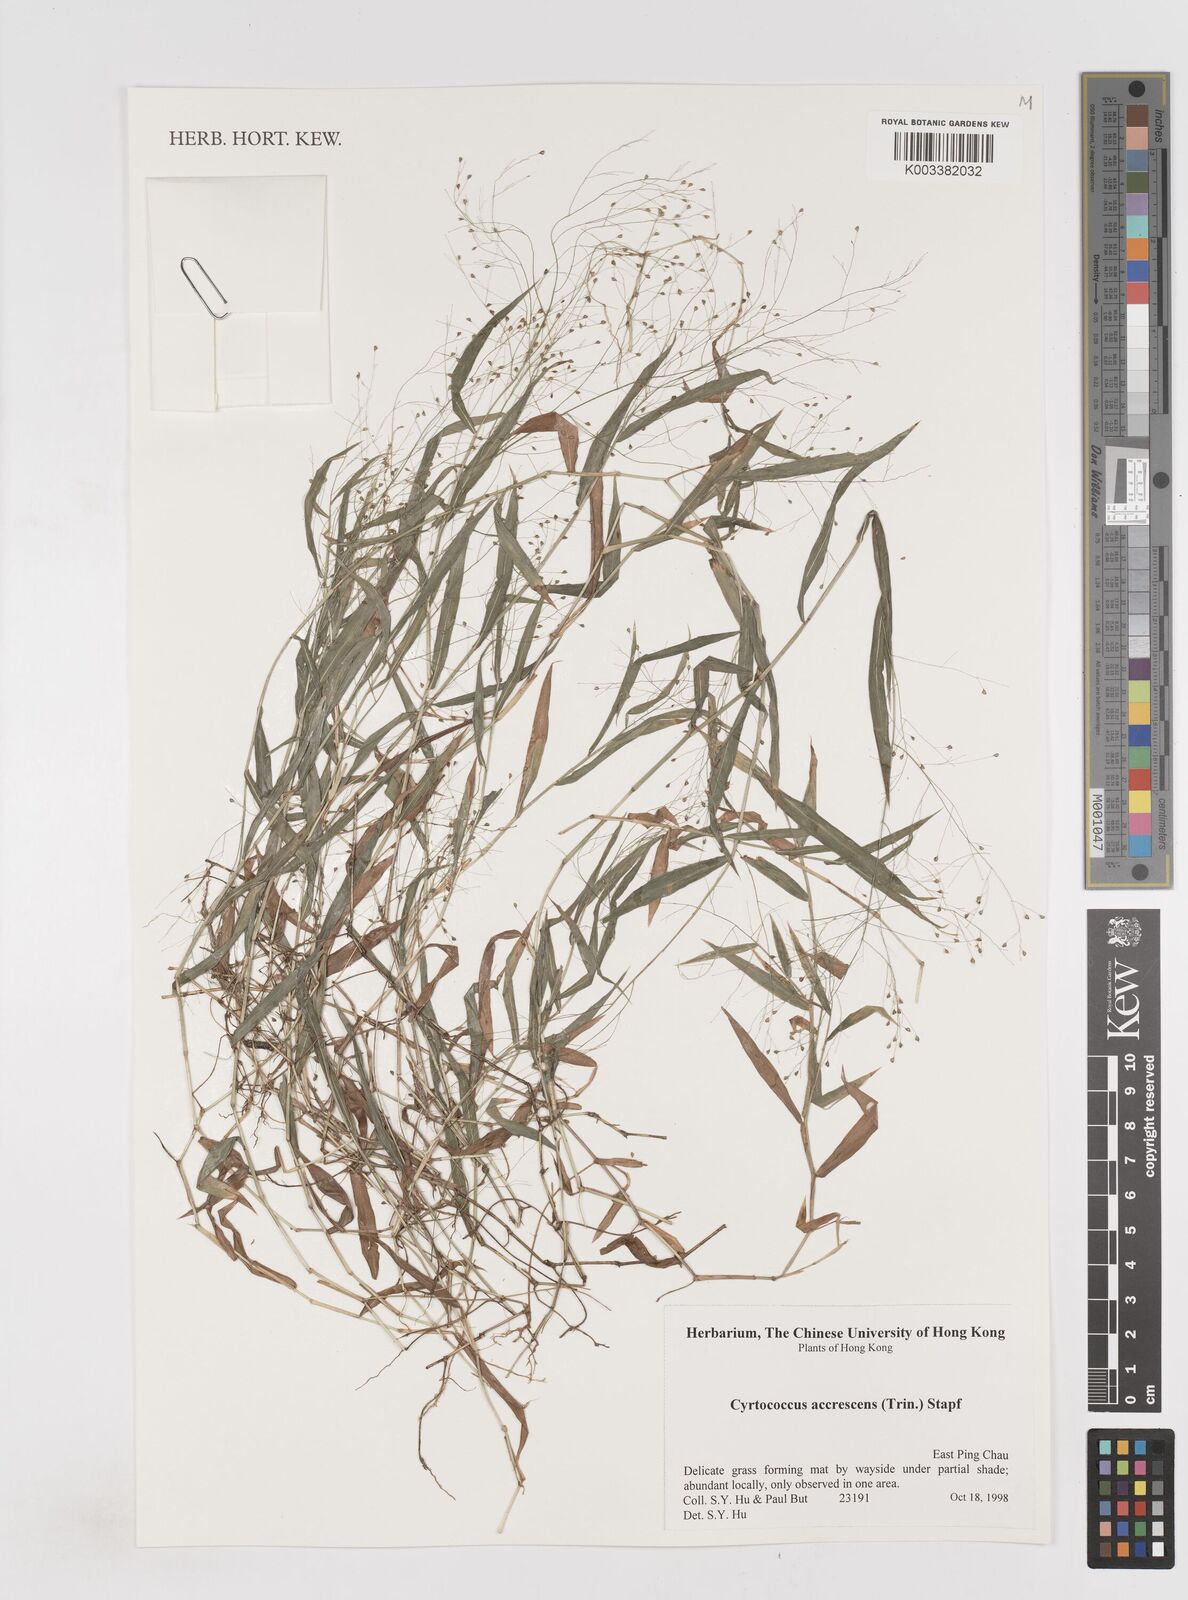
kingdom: Plantae
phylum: Tracheophyta
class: Liliopsida
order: Poales
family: Poaceae
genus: Cyrtococcum
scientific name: Cyrtococcum accrescens
